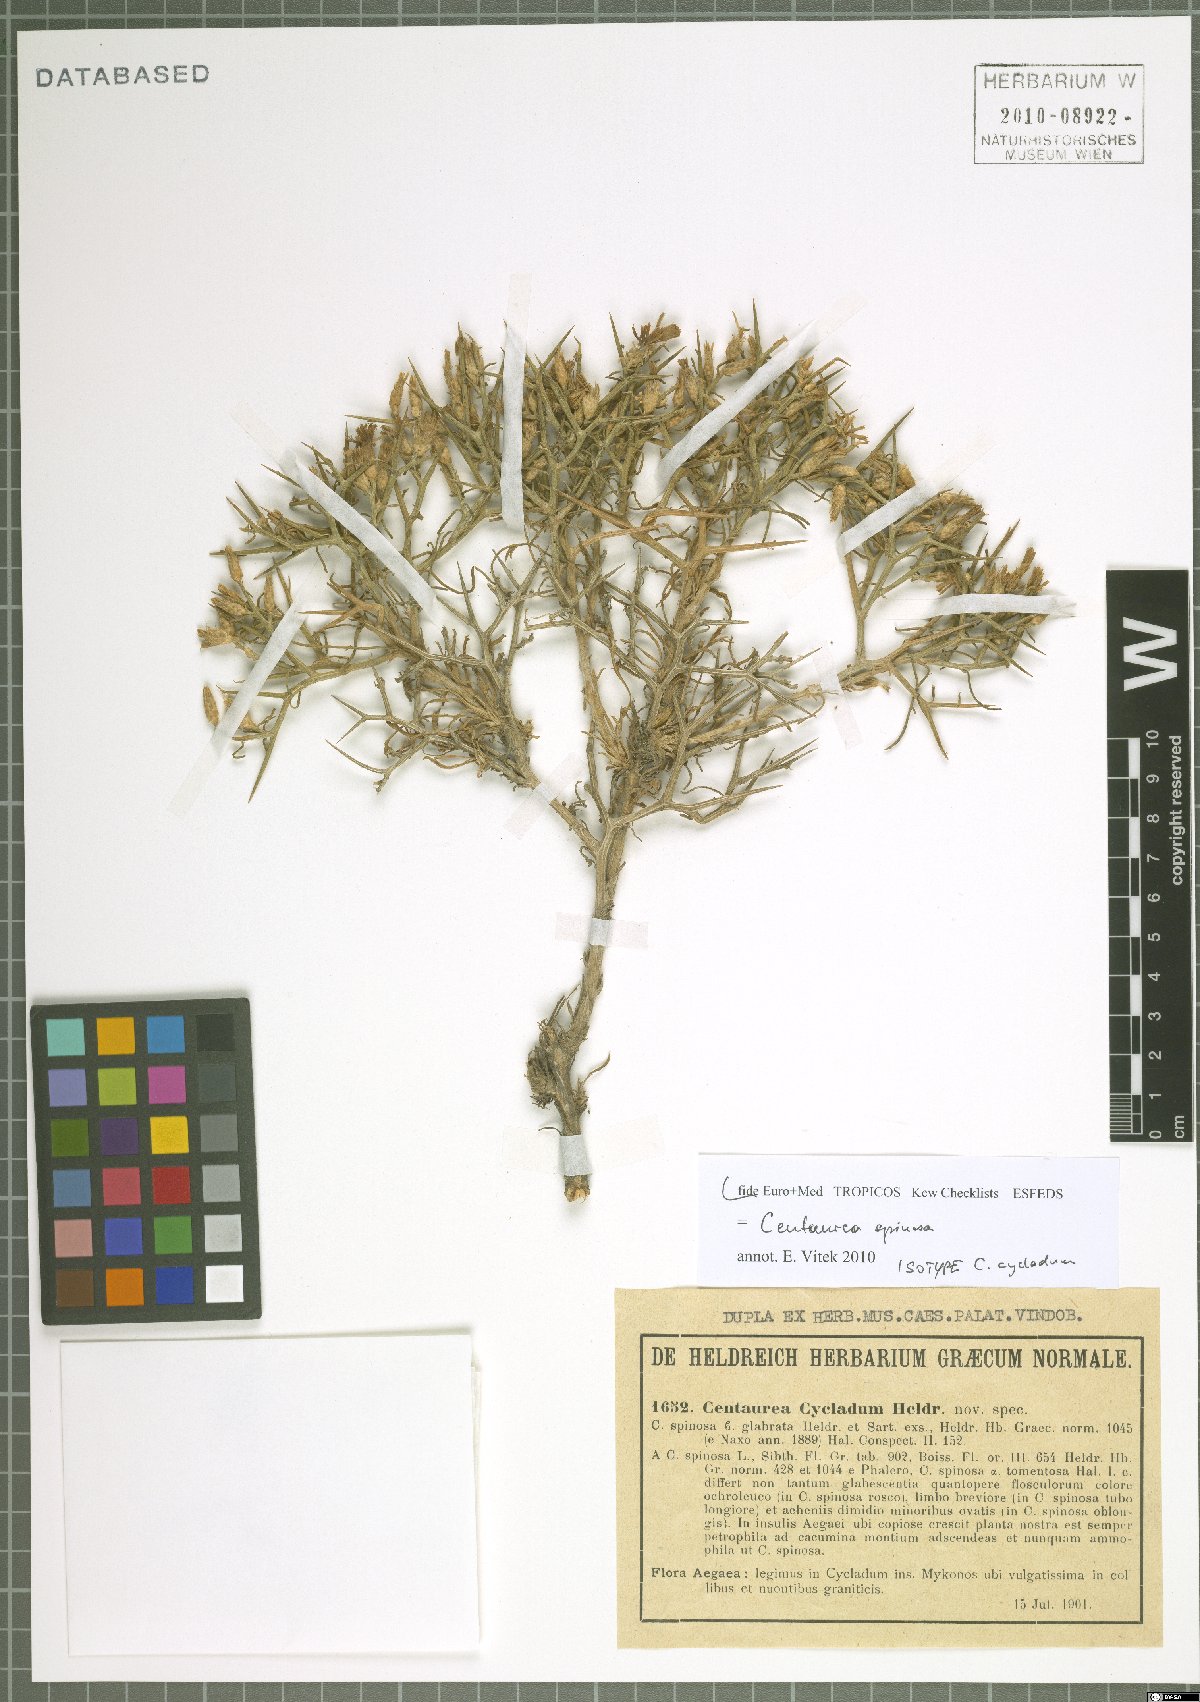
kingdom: Plantae
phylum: Tracheophyta
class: Magnoliopsida
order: Asterales
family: Asteraceae
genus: Centaurea
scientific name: Centaurea spinosa
